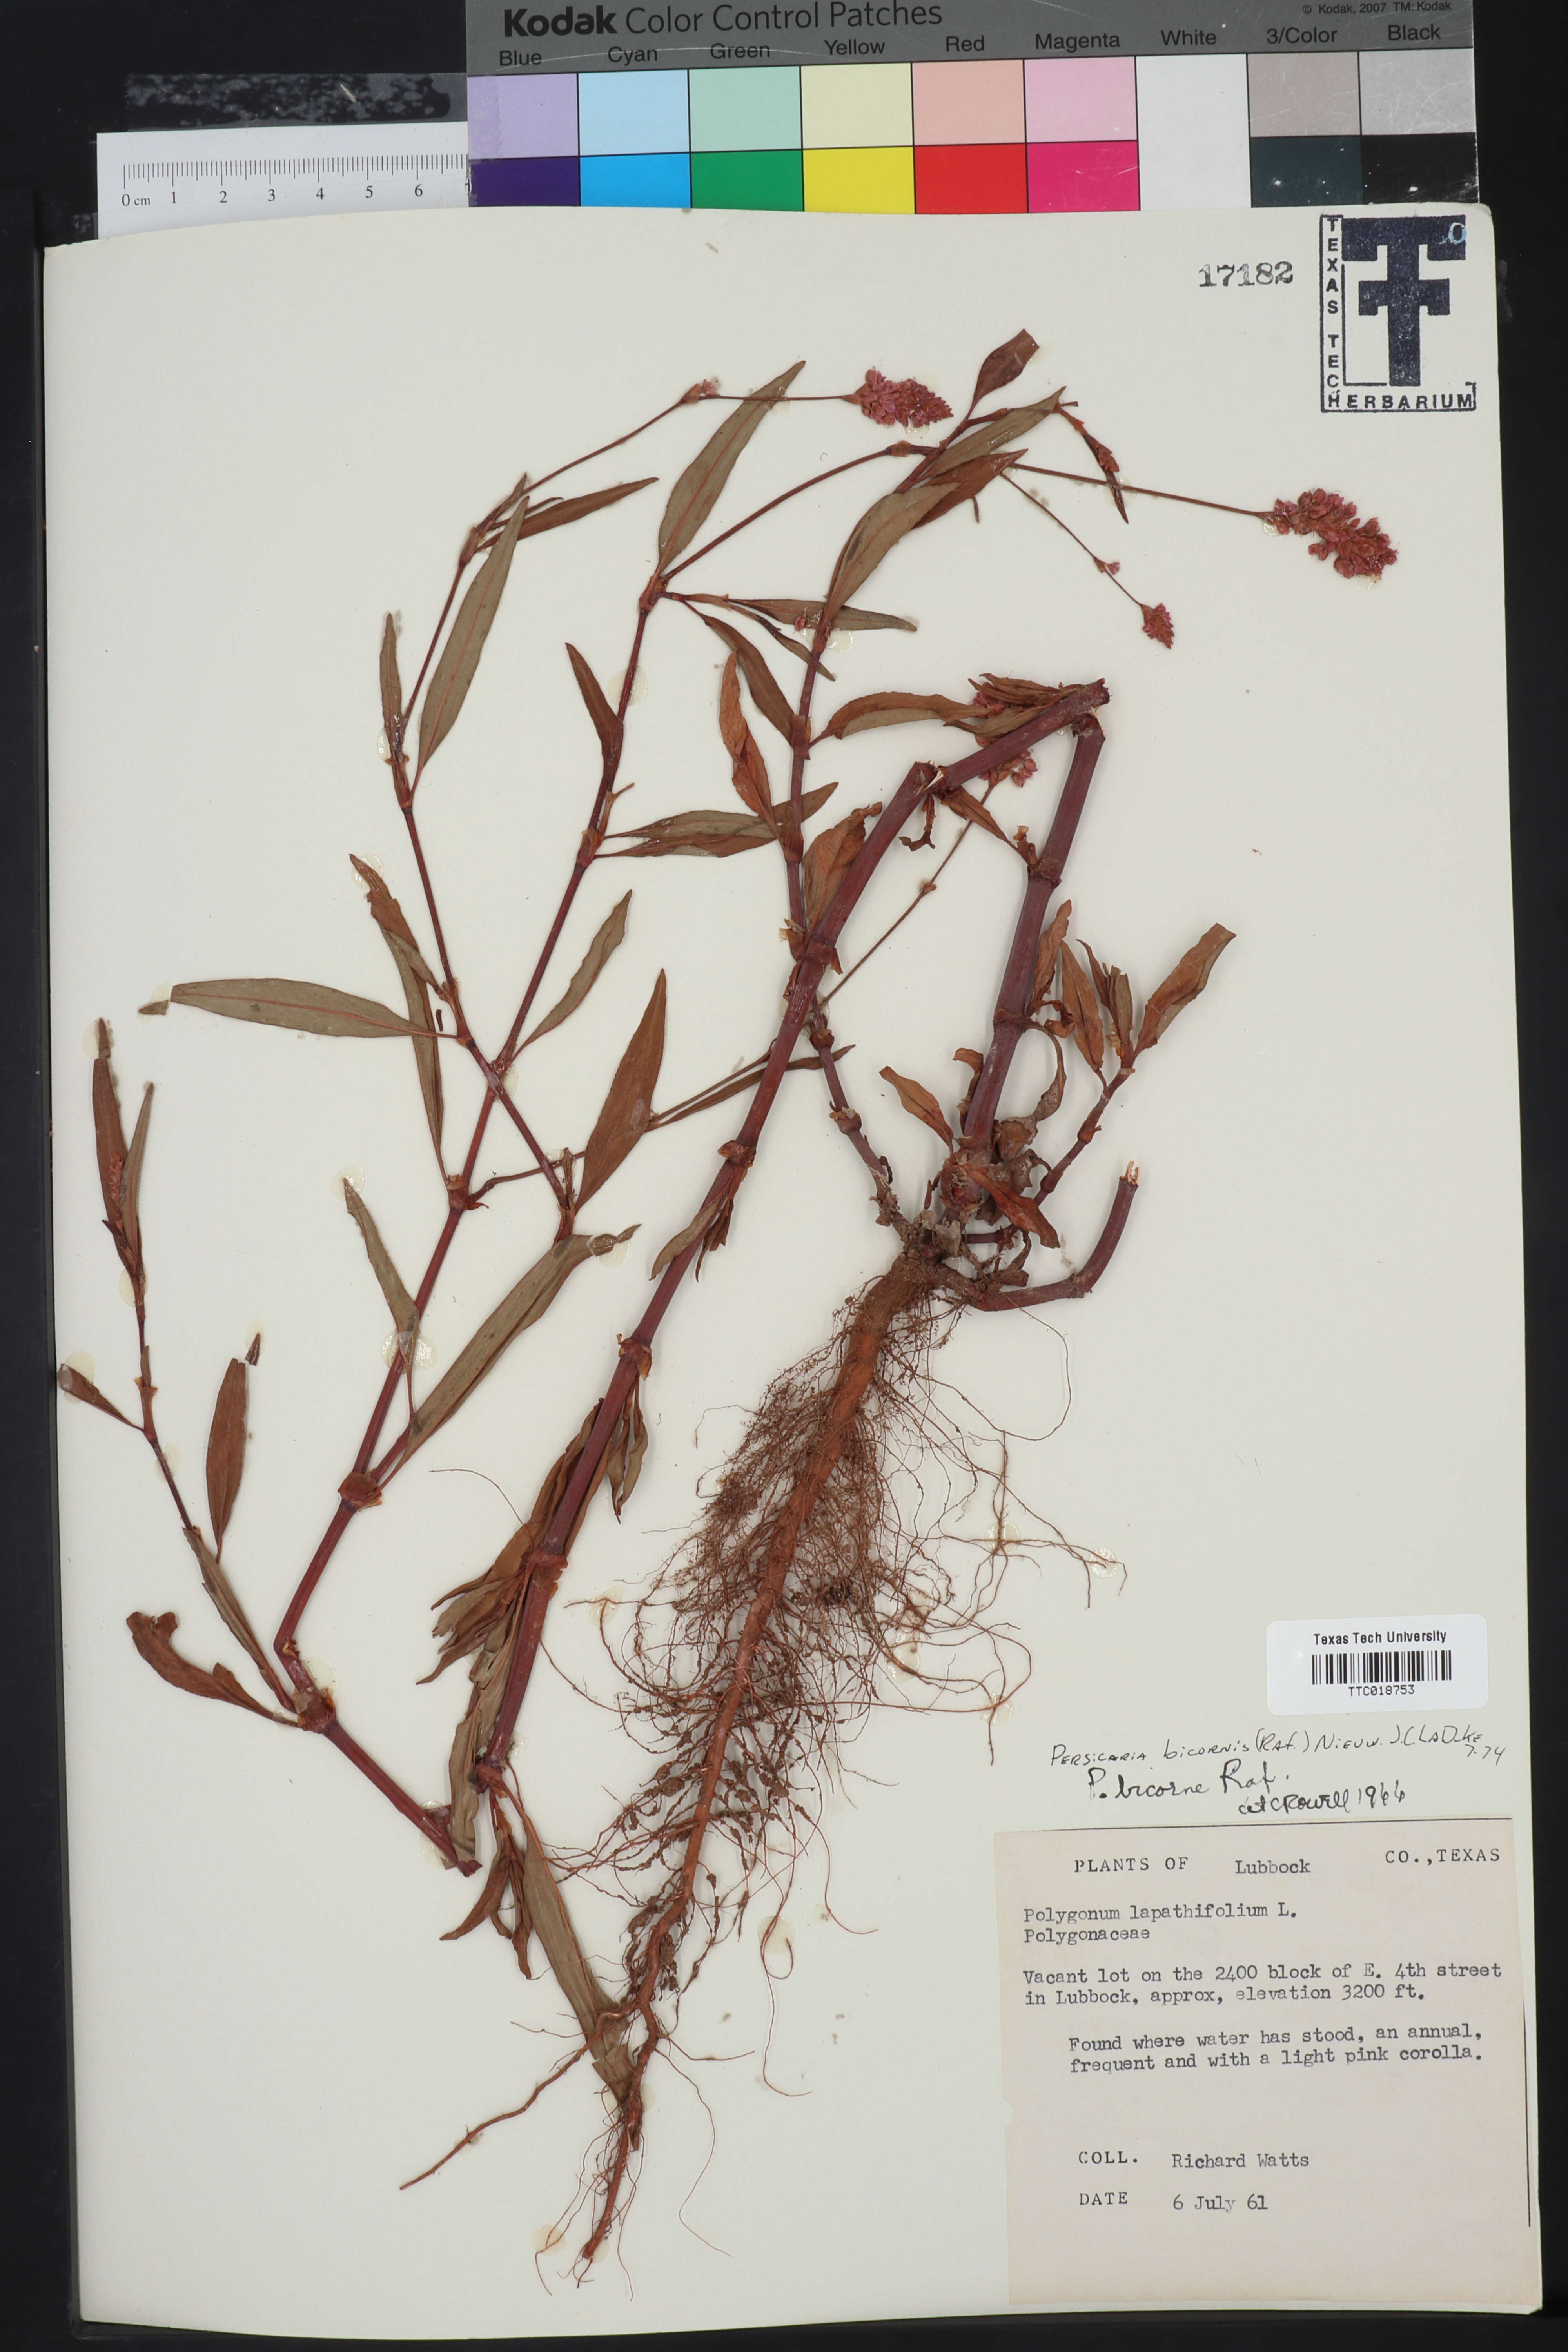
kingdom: Plantae
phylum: Tracheophyta
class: Magnoliopsida
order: Caryophyllales
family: Polygonaceae
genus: Persicaria
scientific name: Persicaria bicornis
